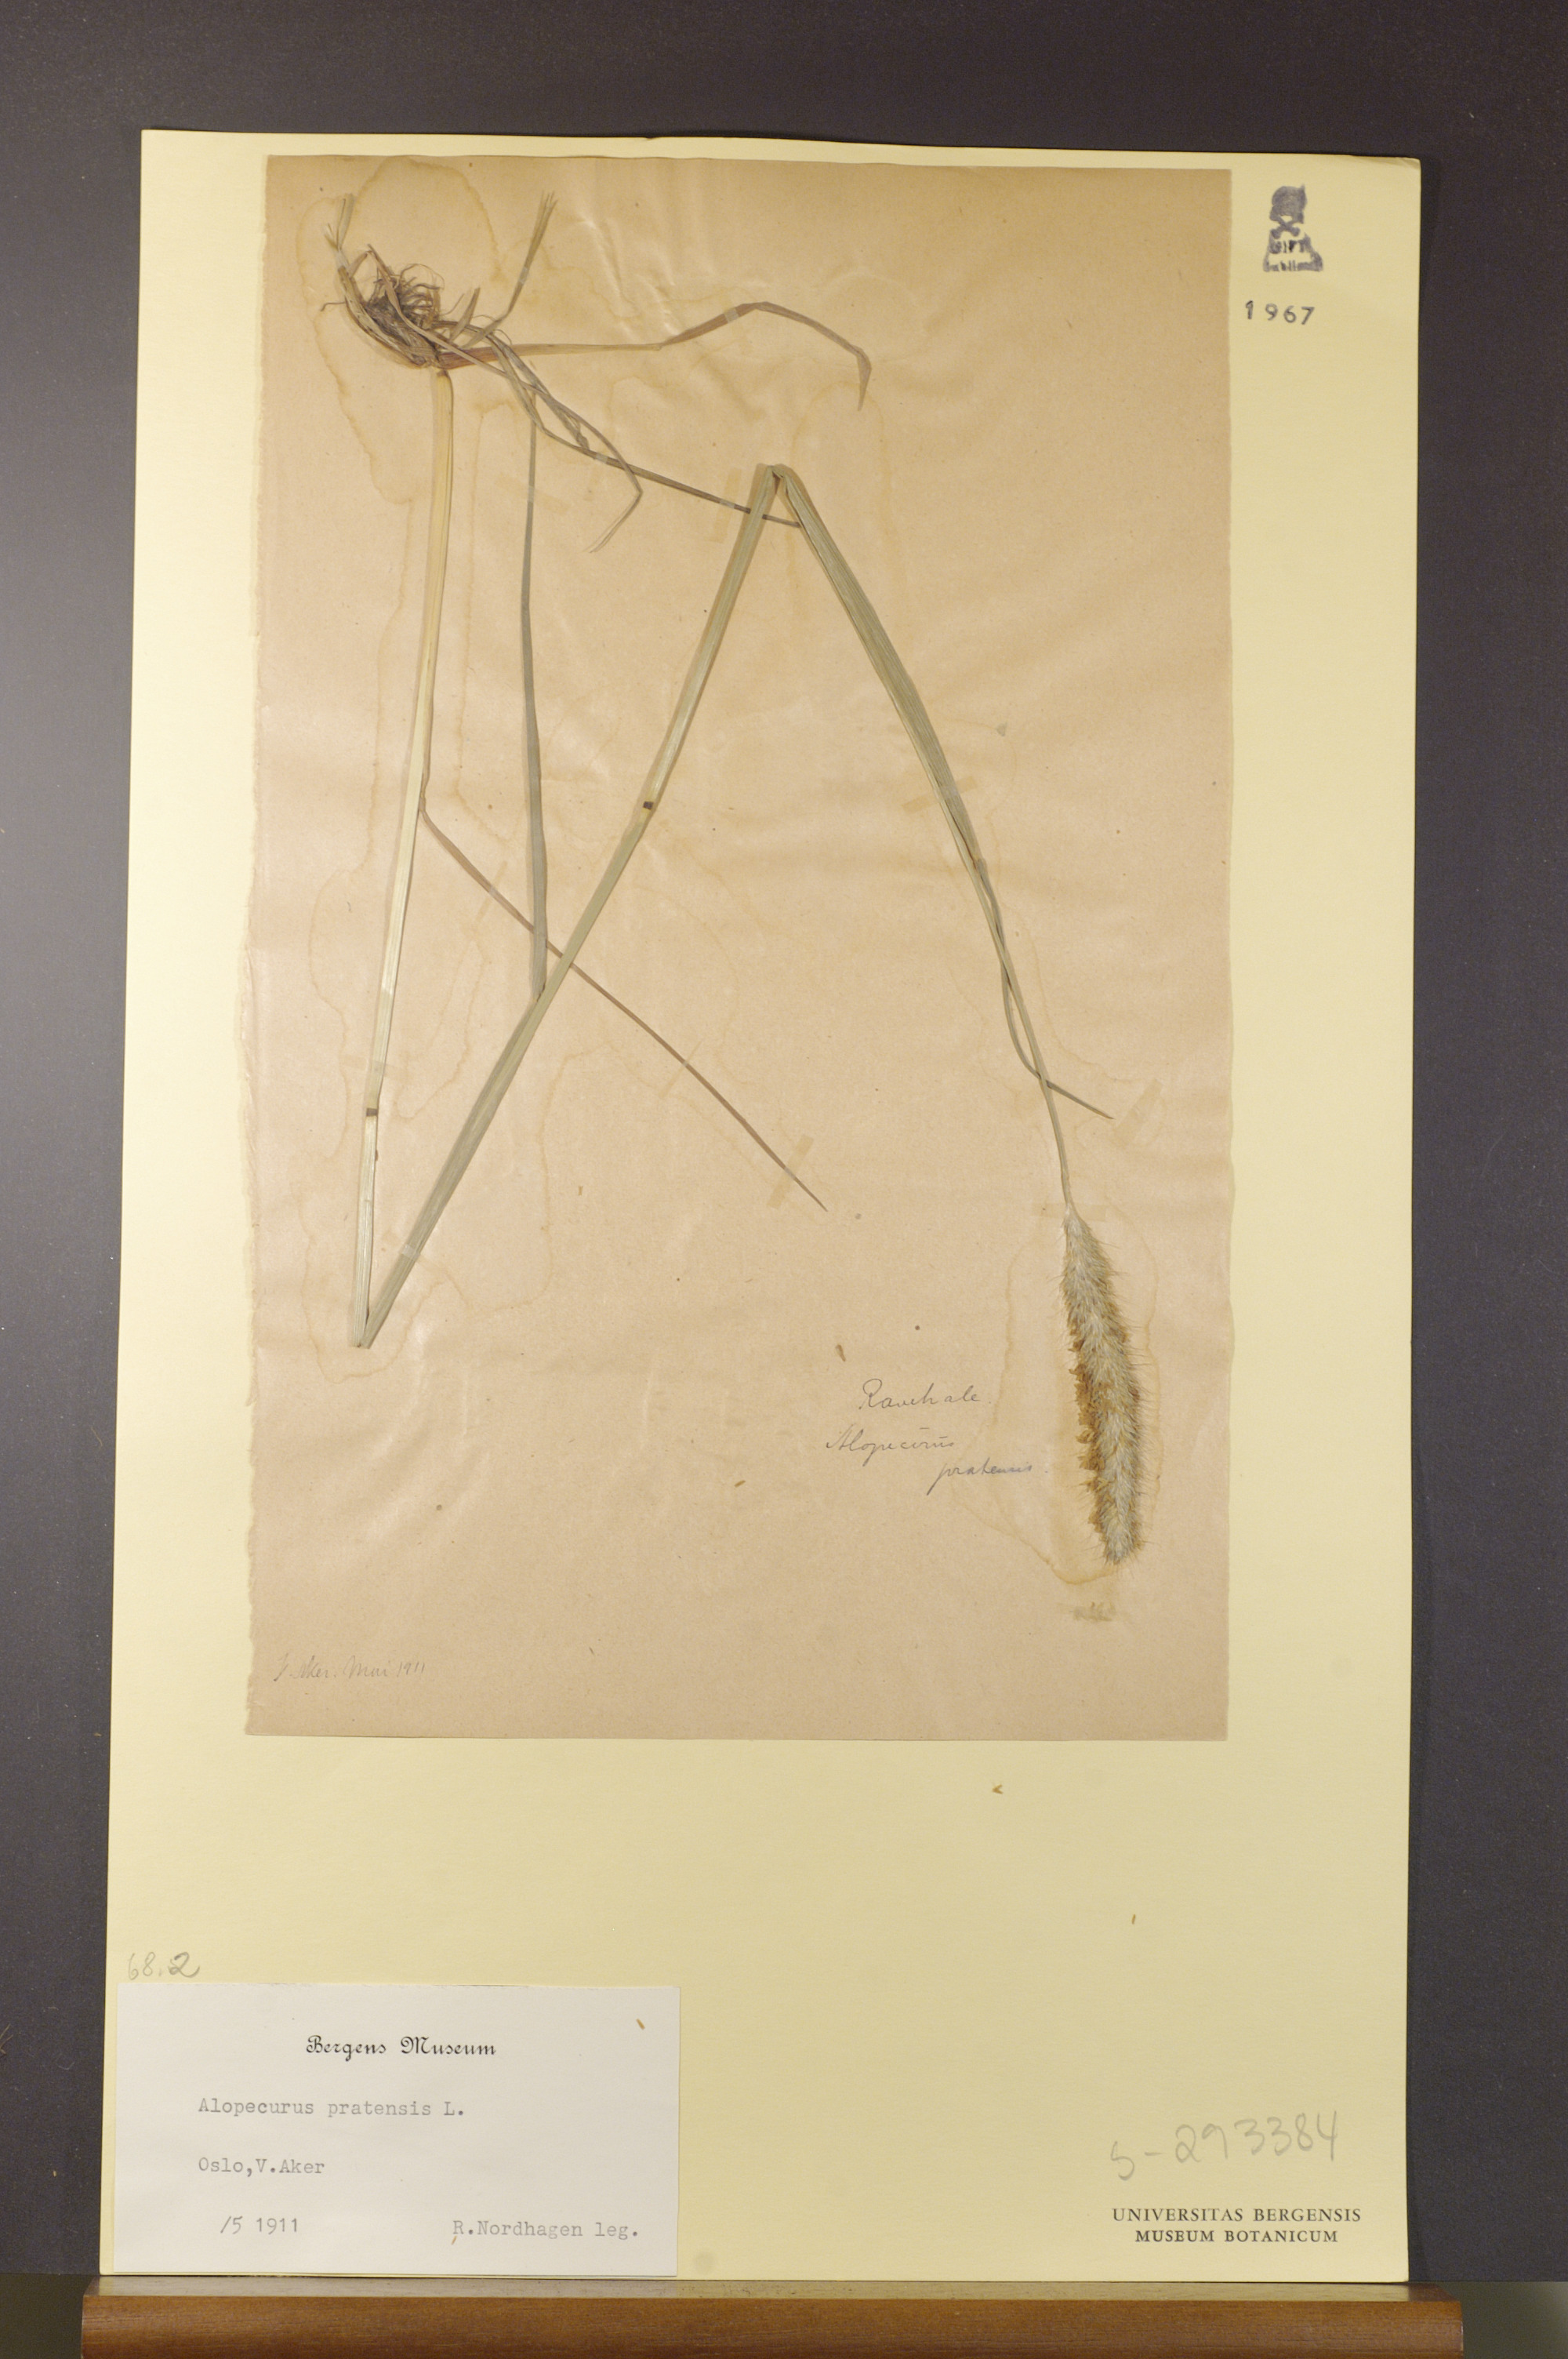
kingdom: Plantae
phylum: Tracheophyta
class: Liliopsida
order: Poales
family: Poaceae
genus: Alopecurus
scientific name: Alopecurus pratensis
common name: Meadow foxtail
